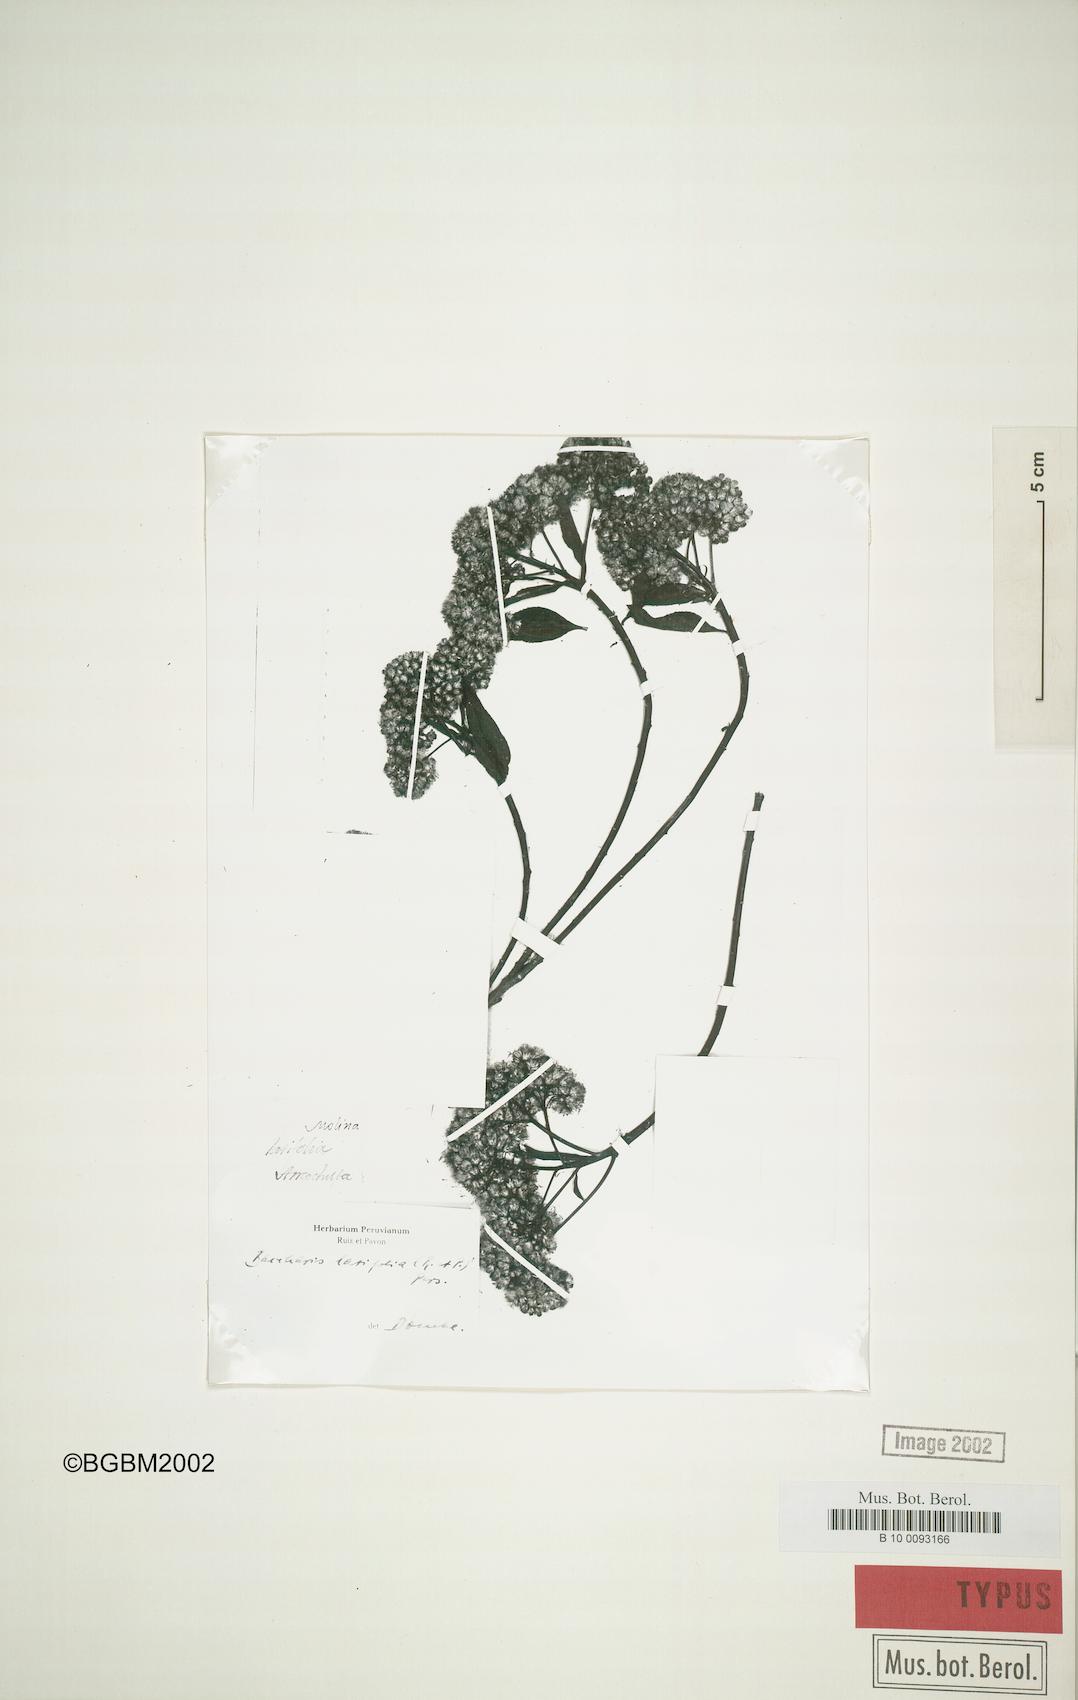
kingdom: Plantae
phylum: Tracheophyta
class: Magnoliopsida
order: Asterales
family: Asteraceae
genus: Baccharis
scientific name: Baccharis latifolia
